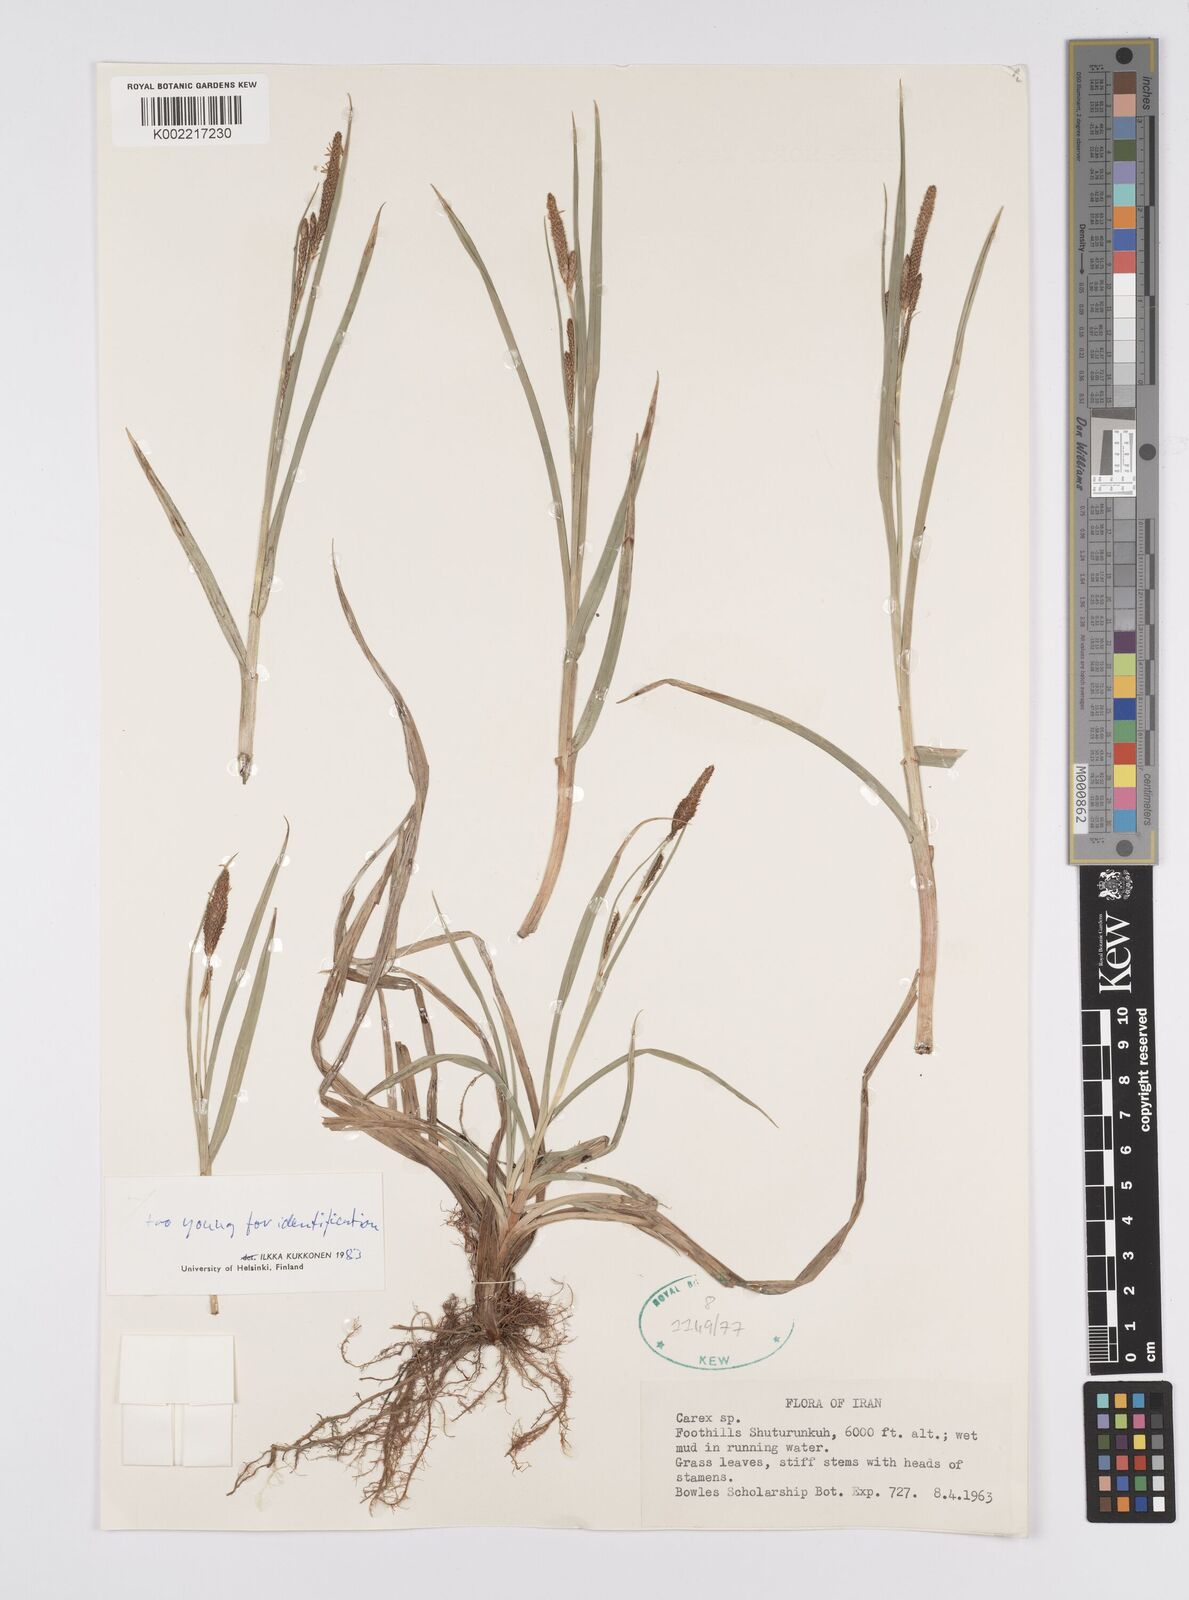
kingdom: Plantae
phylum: Tracheophyta
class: Liliopsida
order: Poales
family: Cyperaceae
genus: Carex
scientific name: Carex
